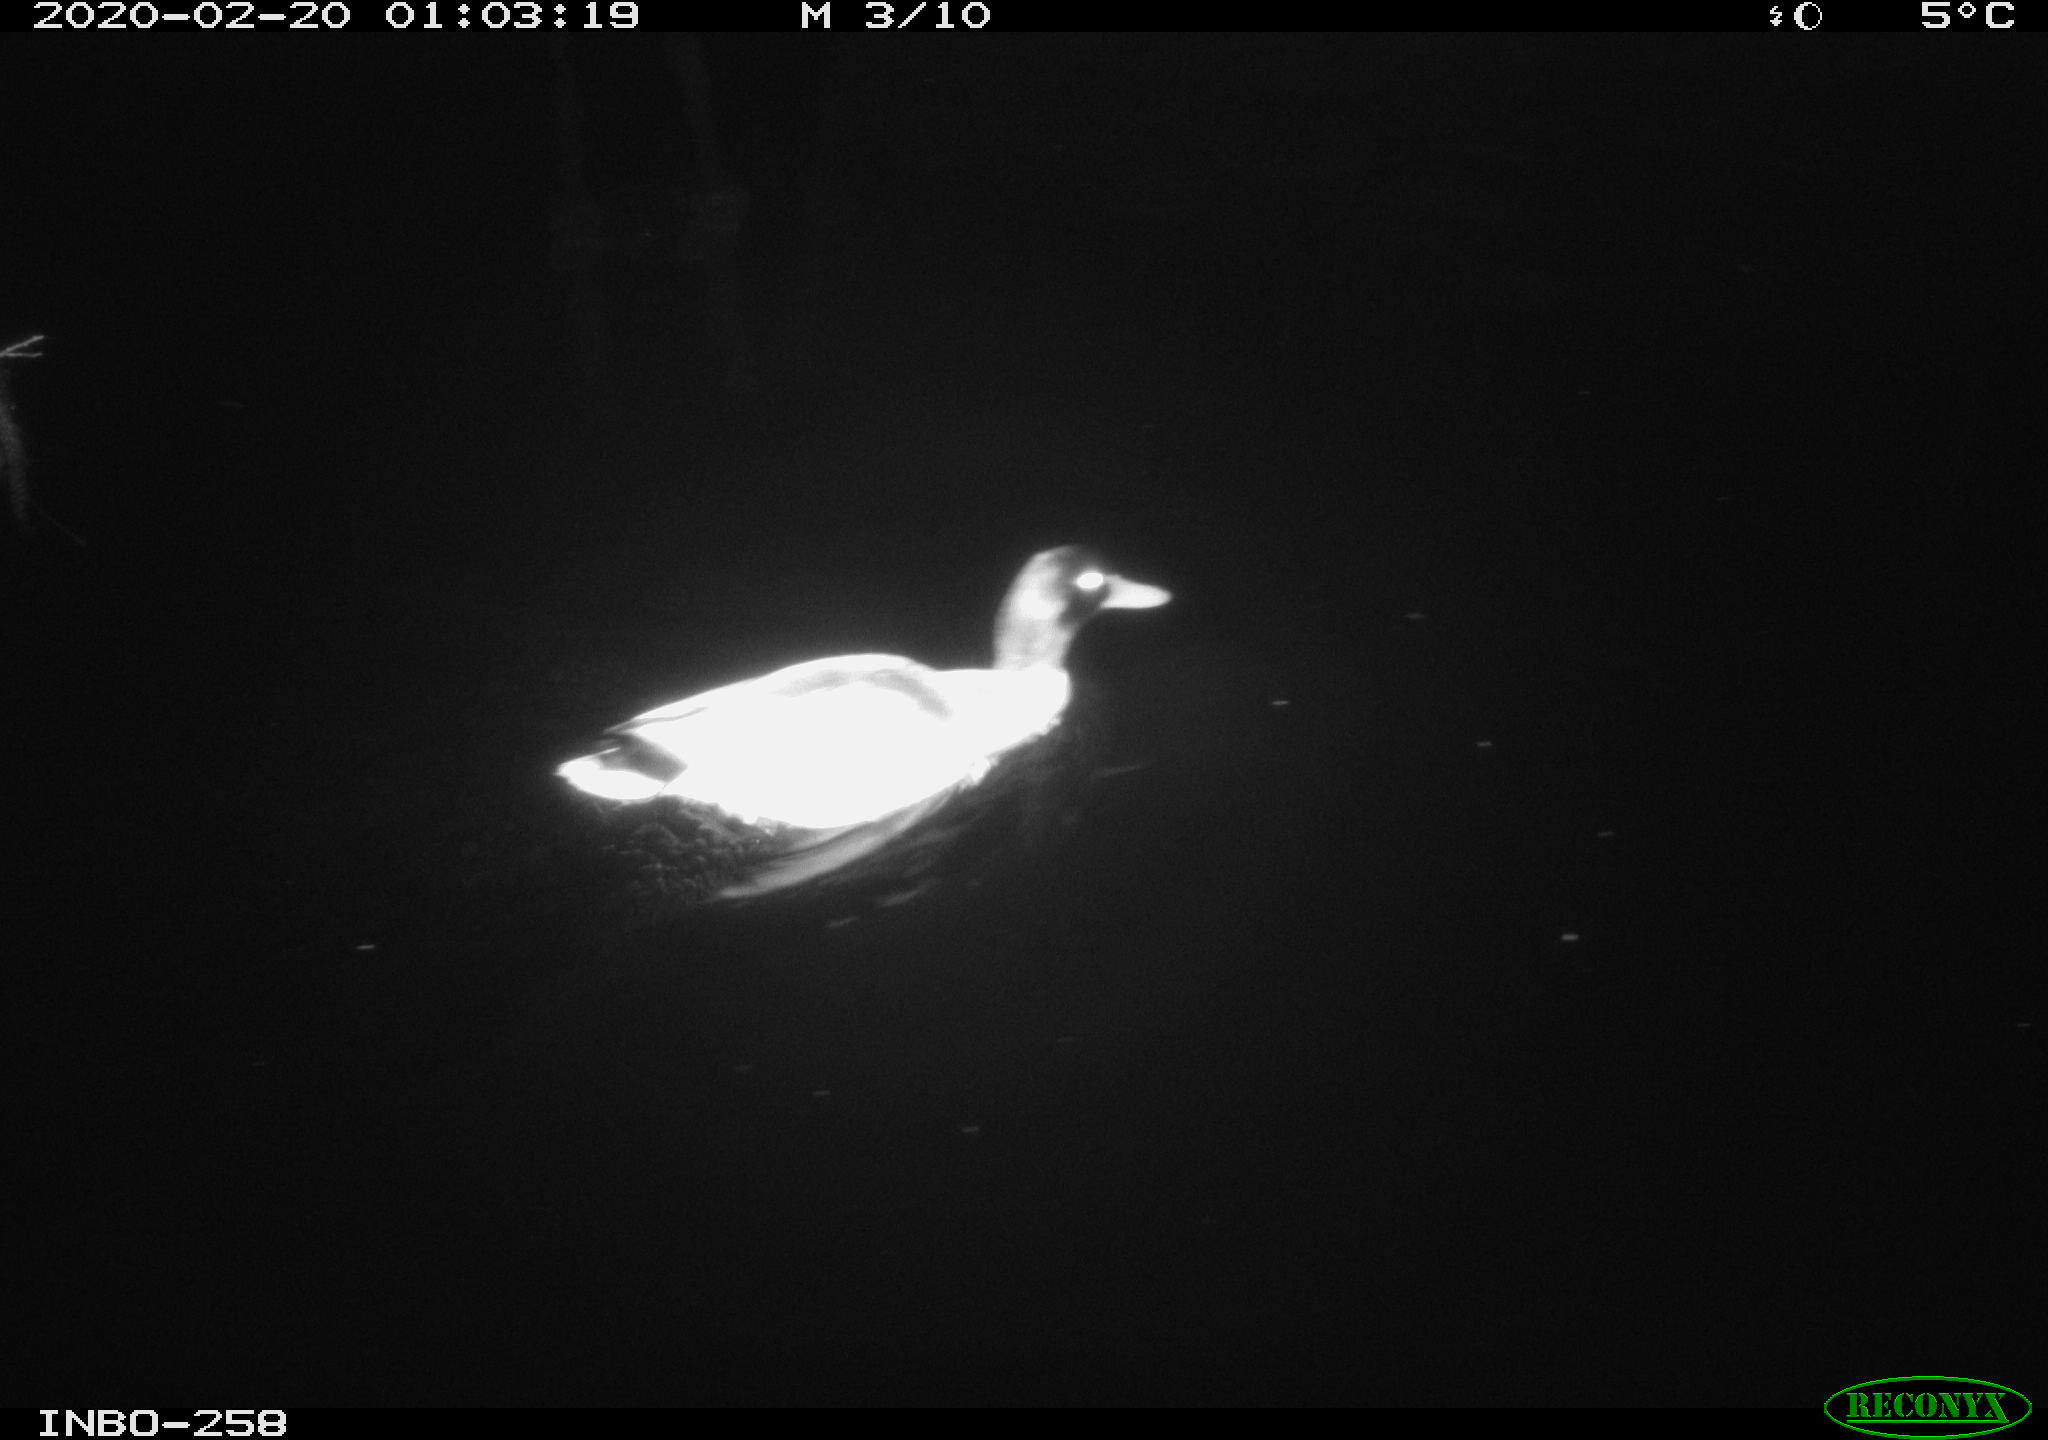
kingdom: Animalia
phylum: Chordata
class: Aves
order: Anseriformes
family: Anatidae
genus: Anas
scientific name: Anas platyrhynchos
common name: Mallard
